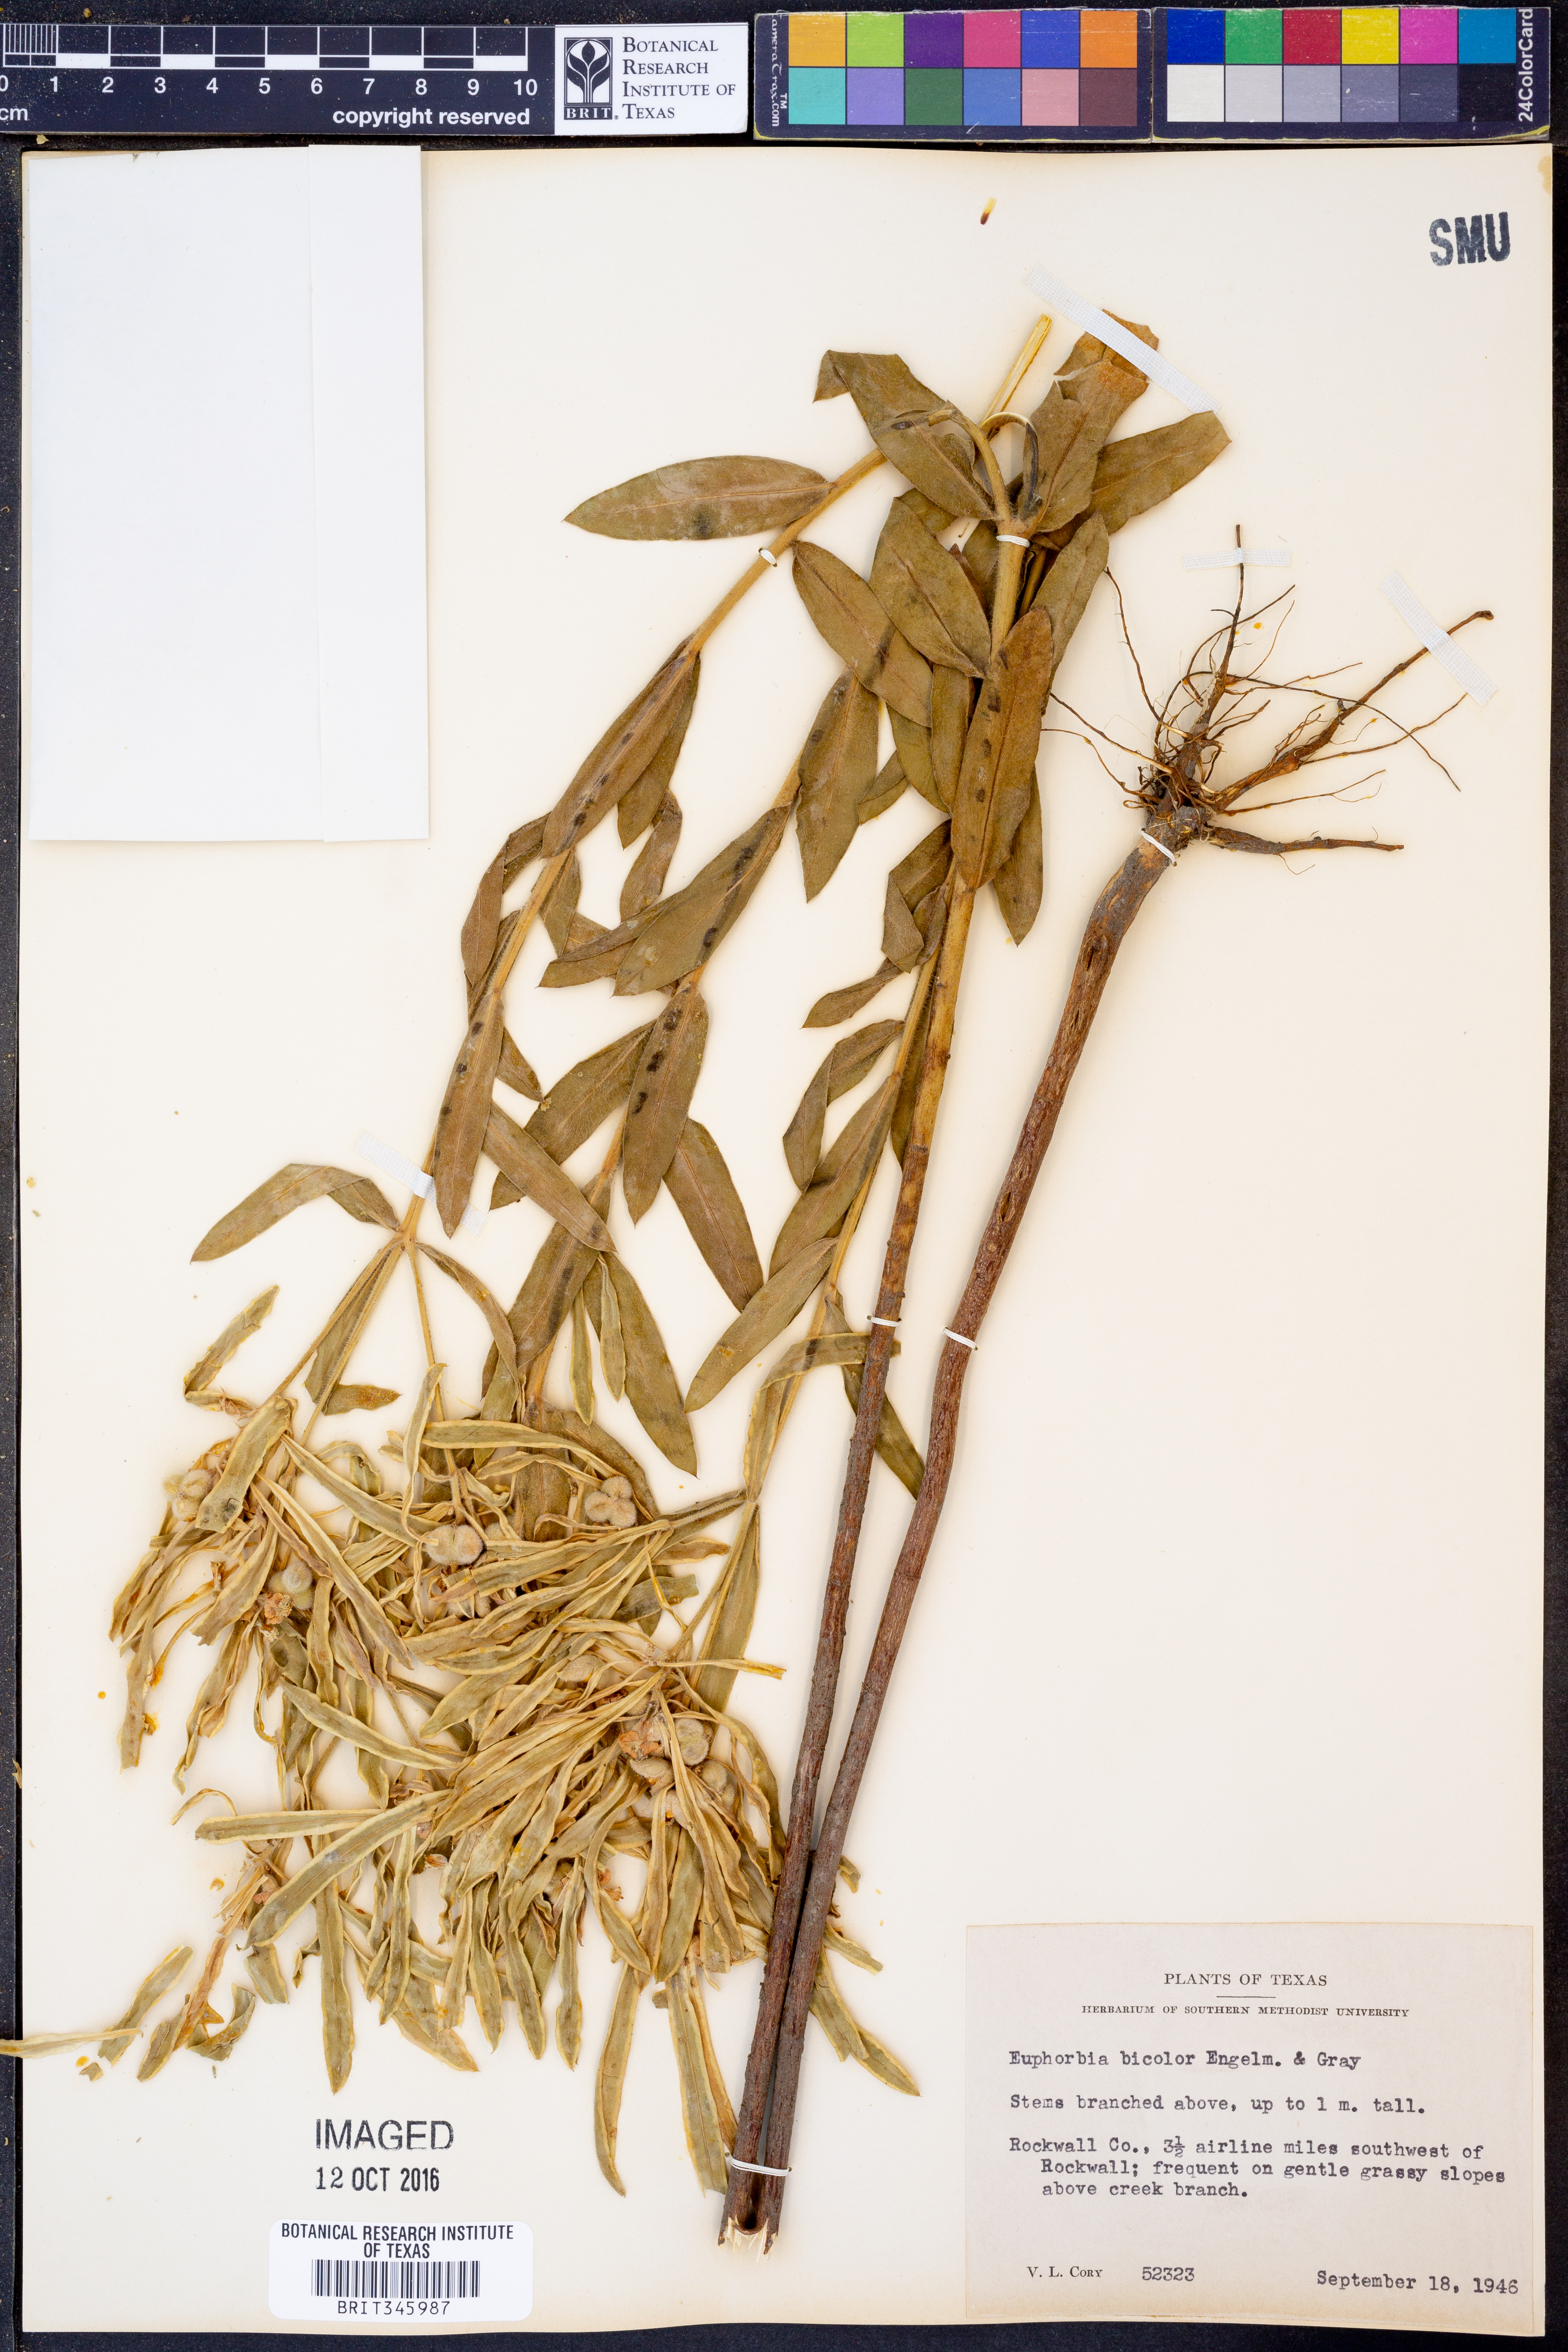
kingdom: Plantae
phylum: Tracheophyta
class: Magnoliopsida
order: Malpighiales
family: Euphorbiaceae
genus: Euphorbia
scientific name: Euphorbia bicolor
